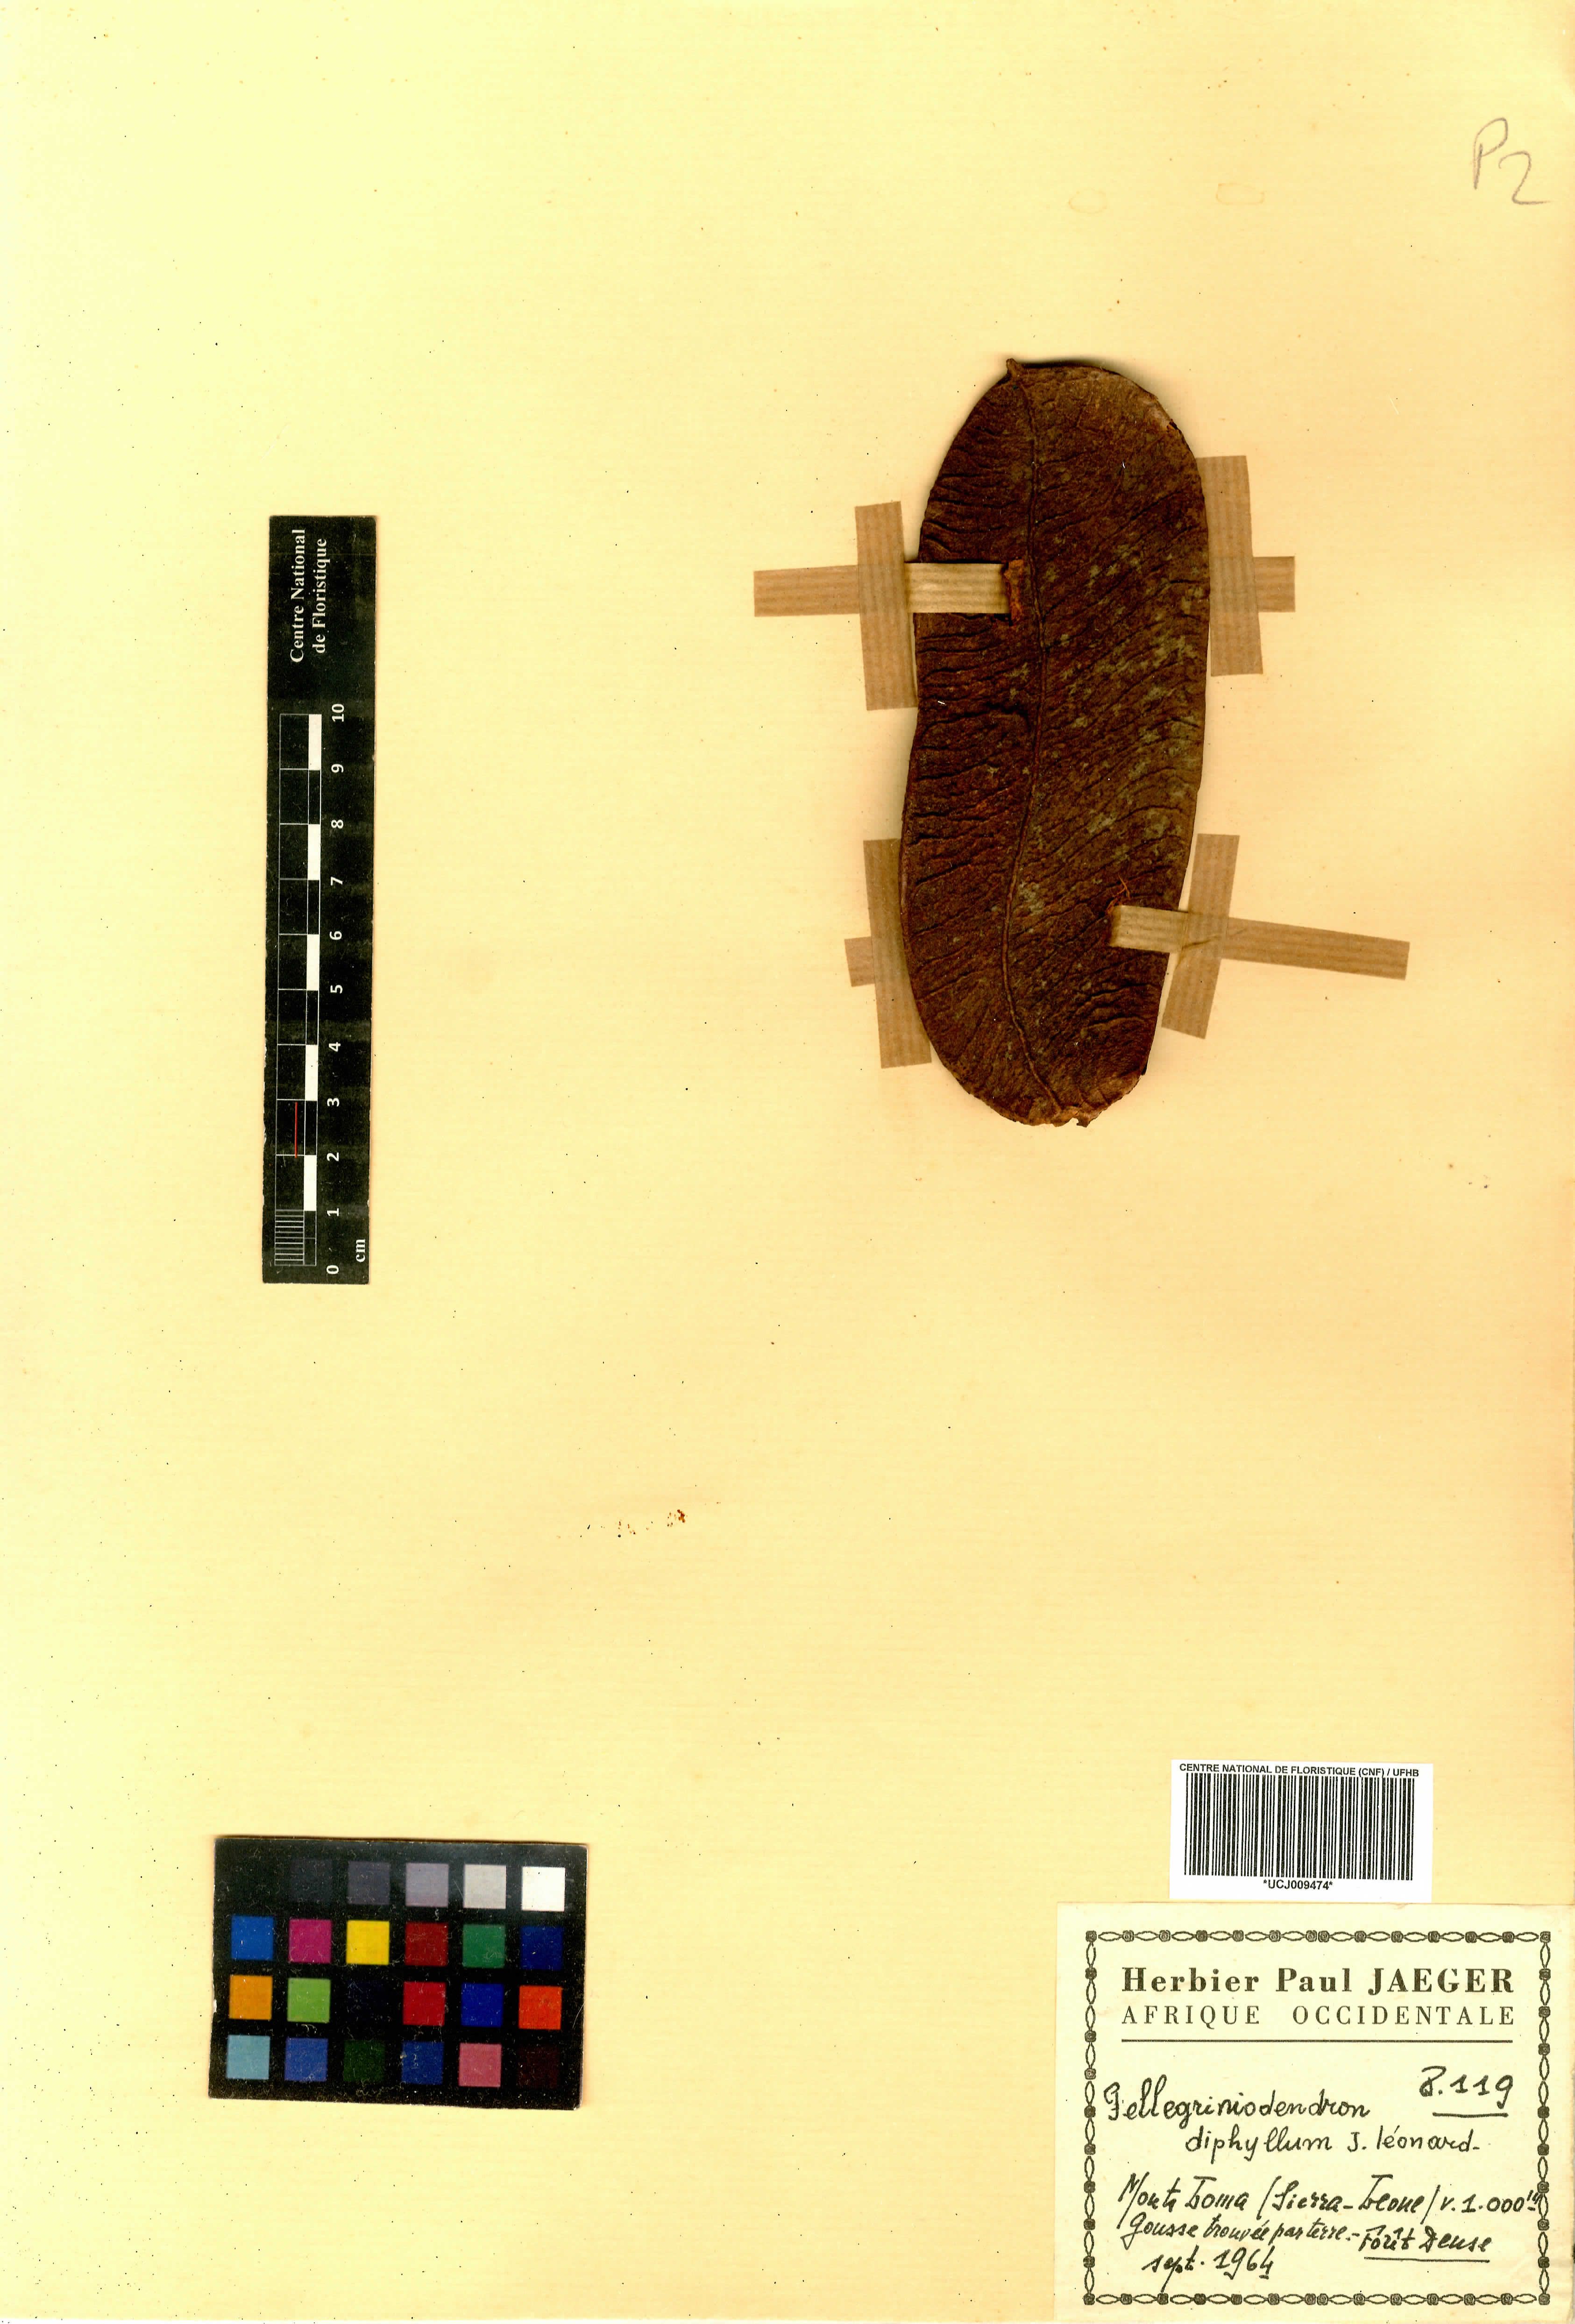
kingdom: Plantae
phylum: Tracheophyta
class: Magnoliopsida
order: Fabales
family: Fabaceae
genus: Gilbertiodendron
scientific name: Gilbertiodendron diphyllum
